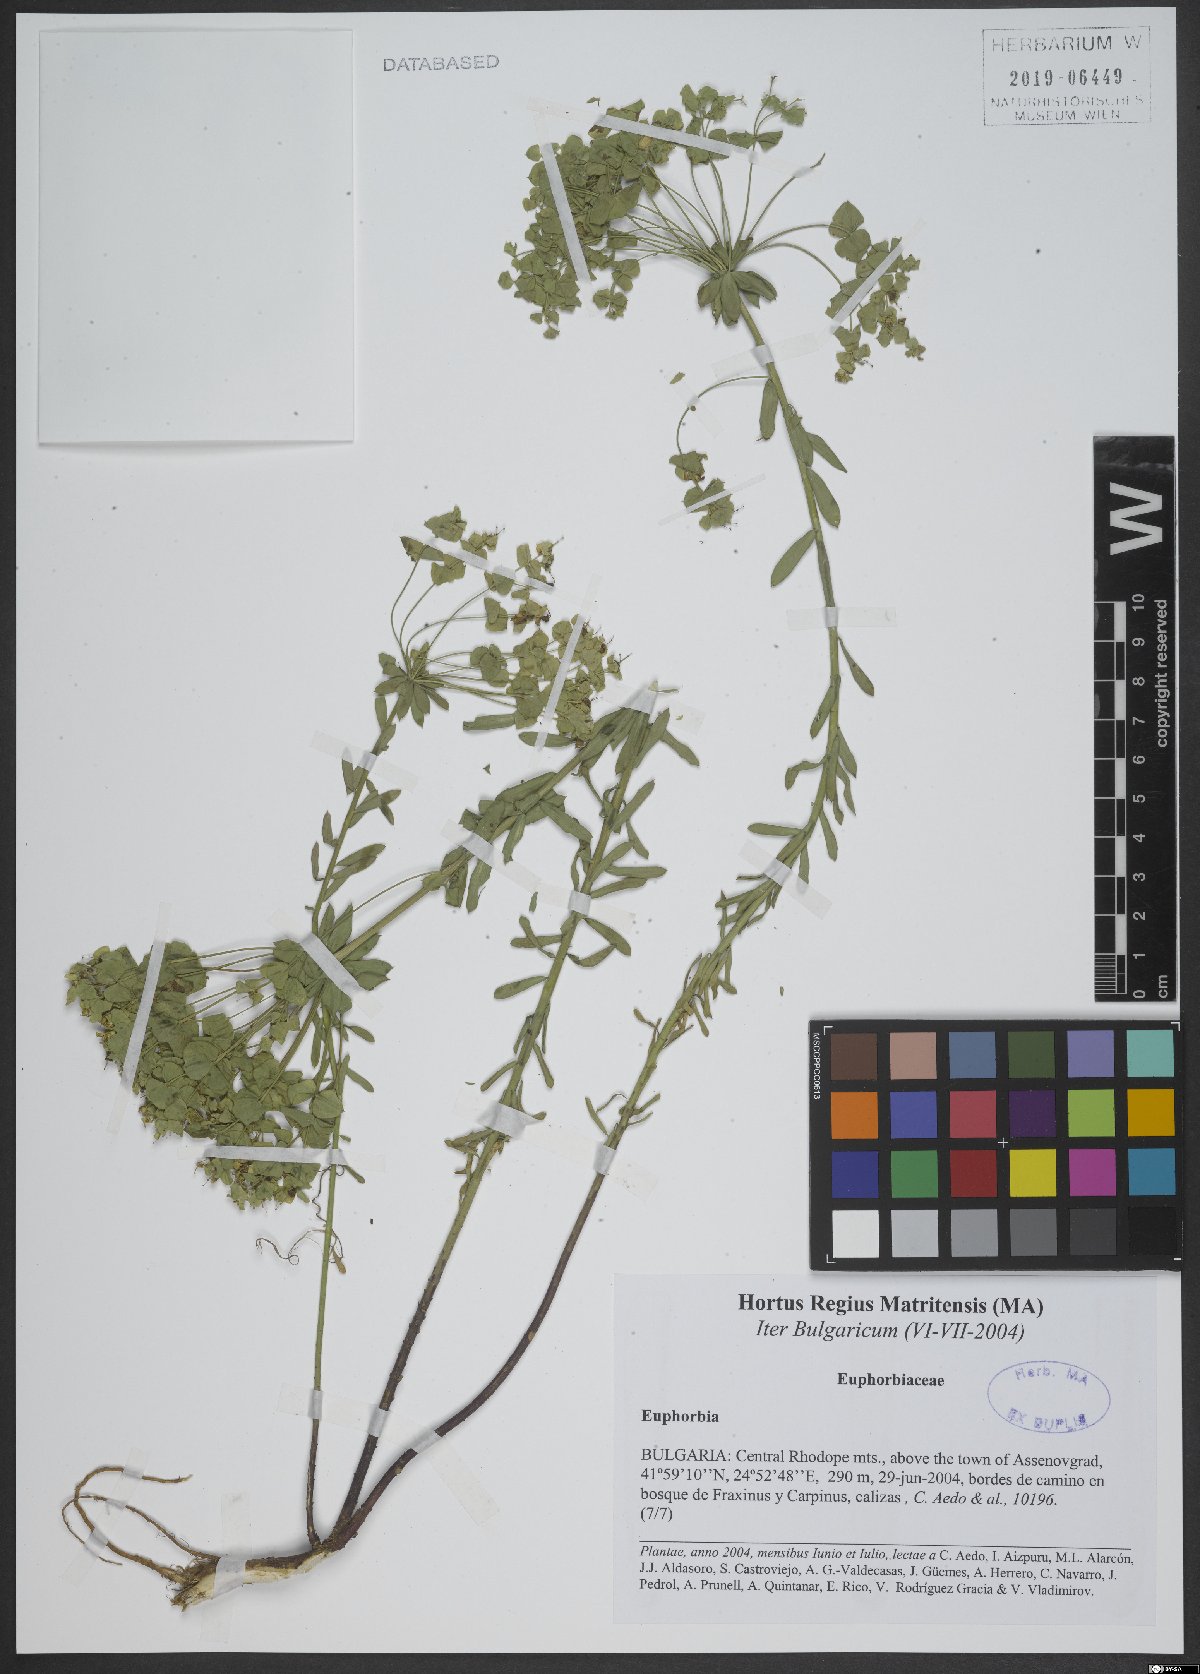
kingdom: Plantae
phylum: Tracheophyta
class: Magnoliopsida
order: Malpighiales
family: Euphorbiaceae
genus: Euphorbia
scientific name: Euphorbia
